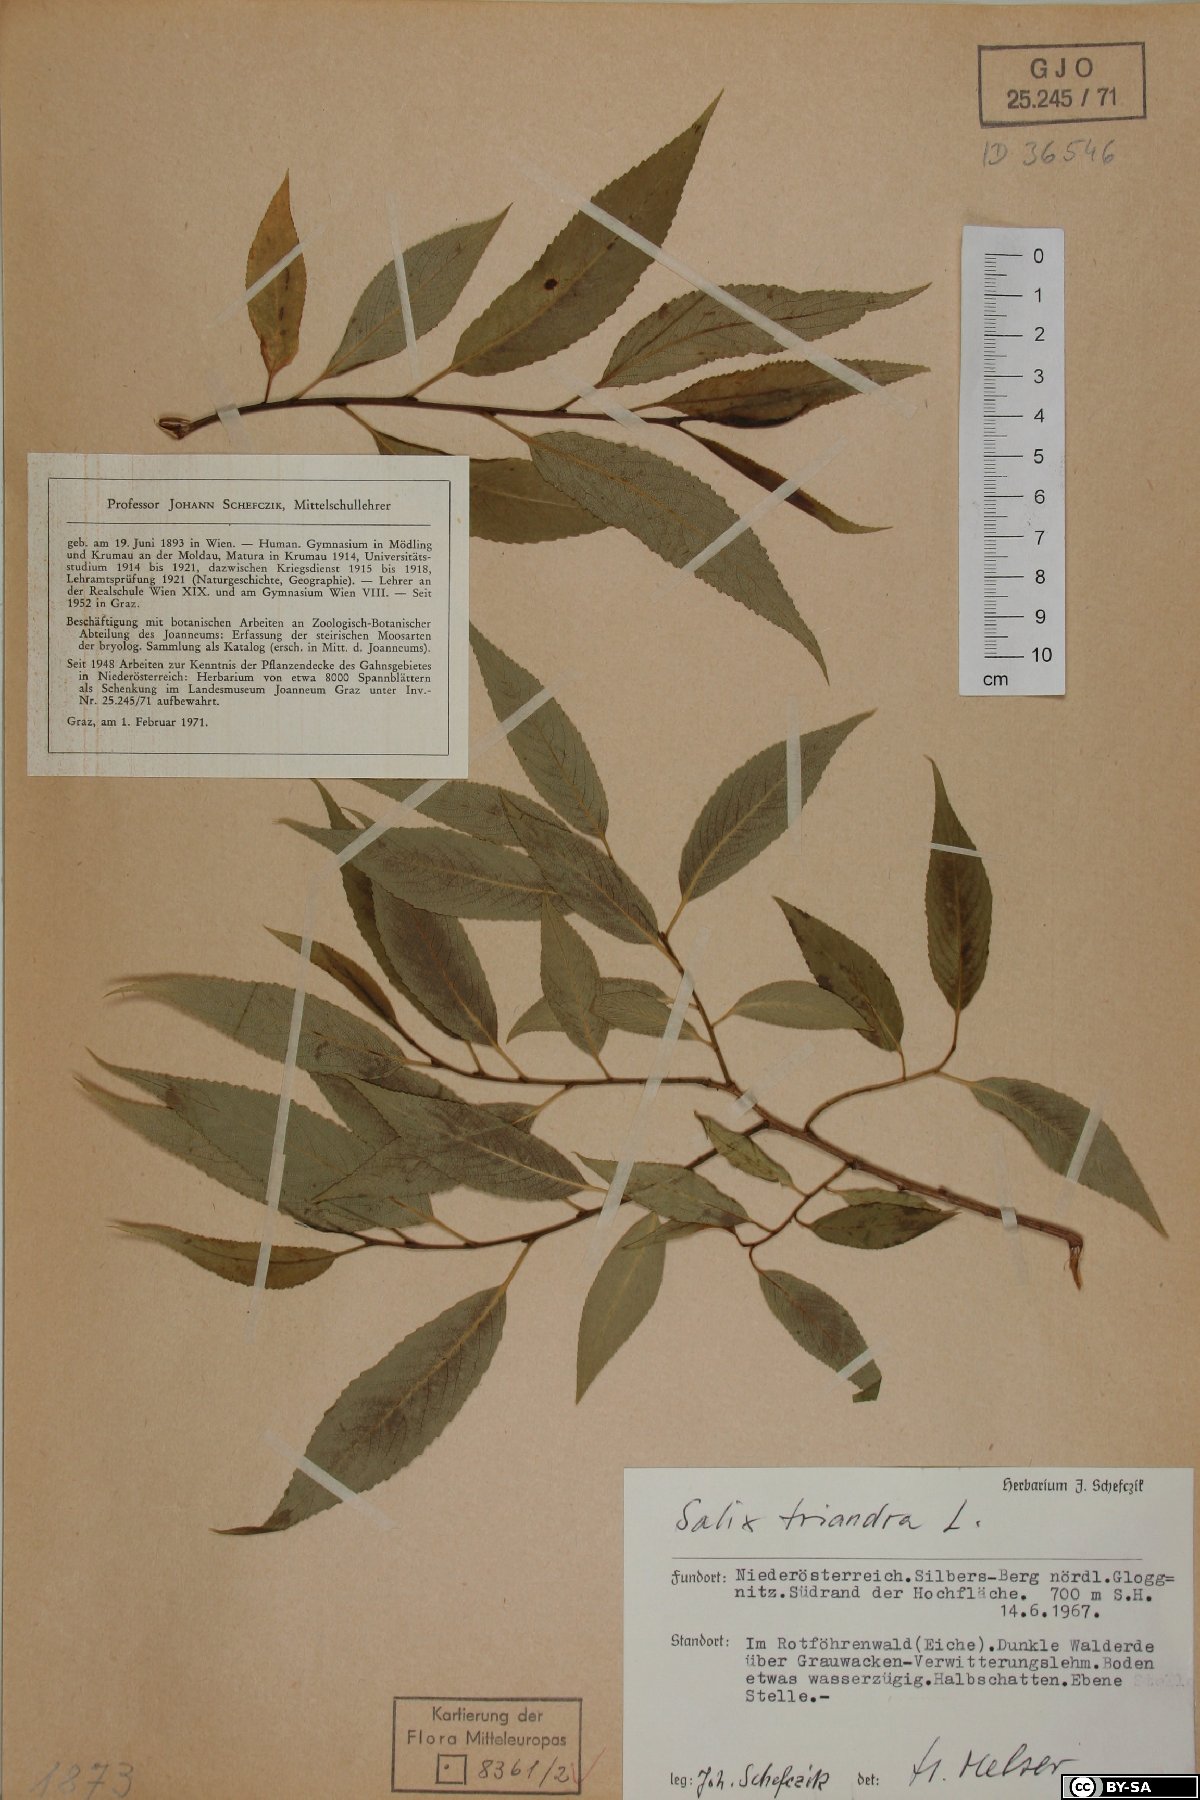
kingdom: Plantae
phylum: Tracheophyta
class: Magnoliopsida
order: Malpighiales
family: Salicaceae
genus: Salix
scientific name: Salix triandra
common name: Almond willow
